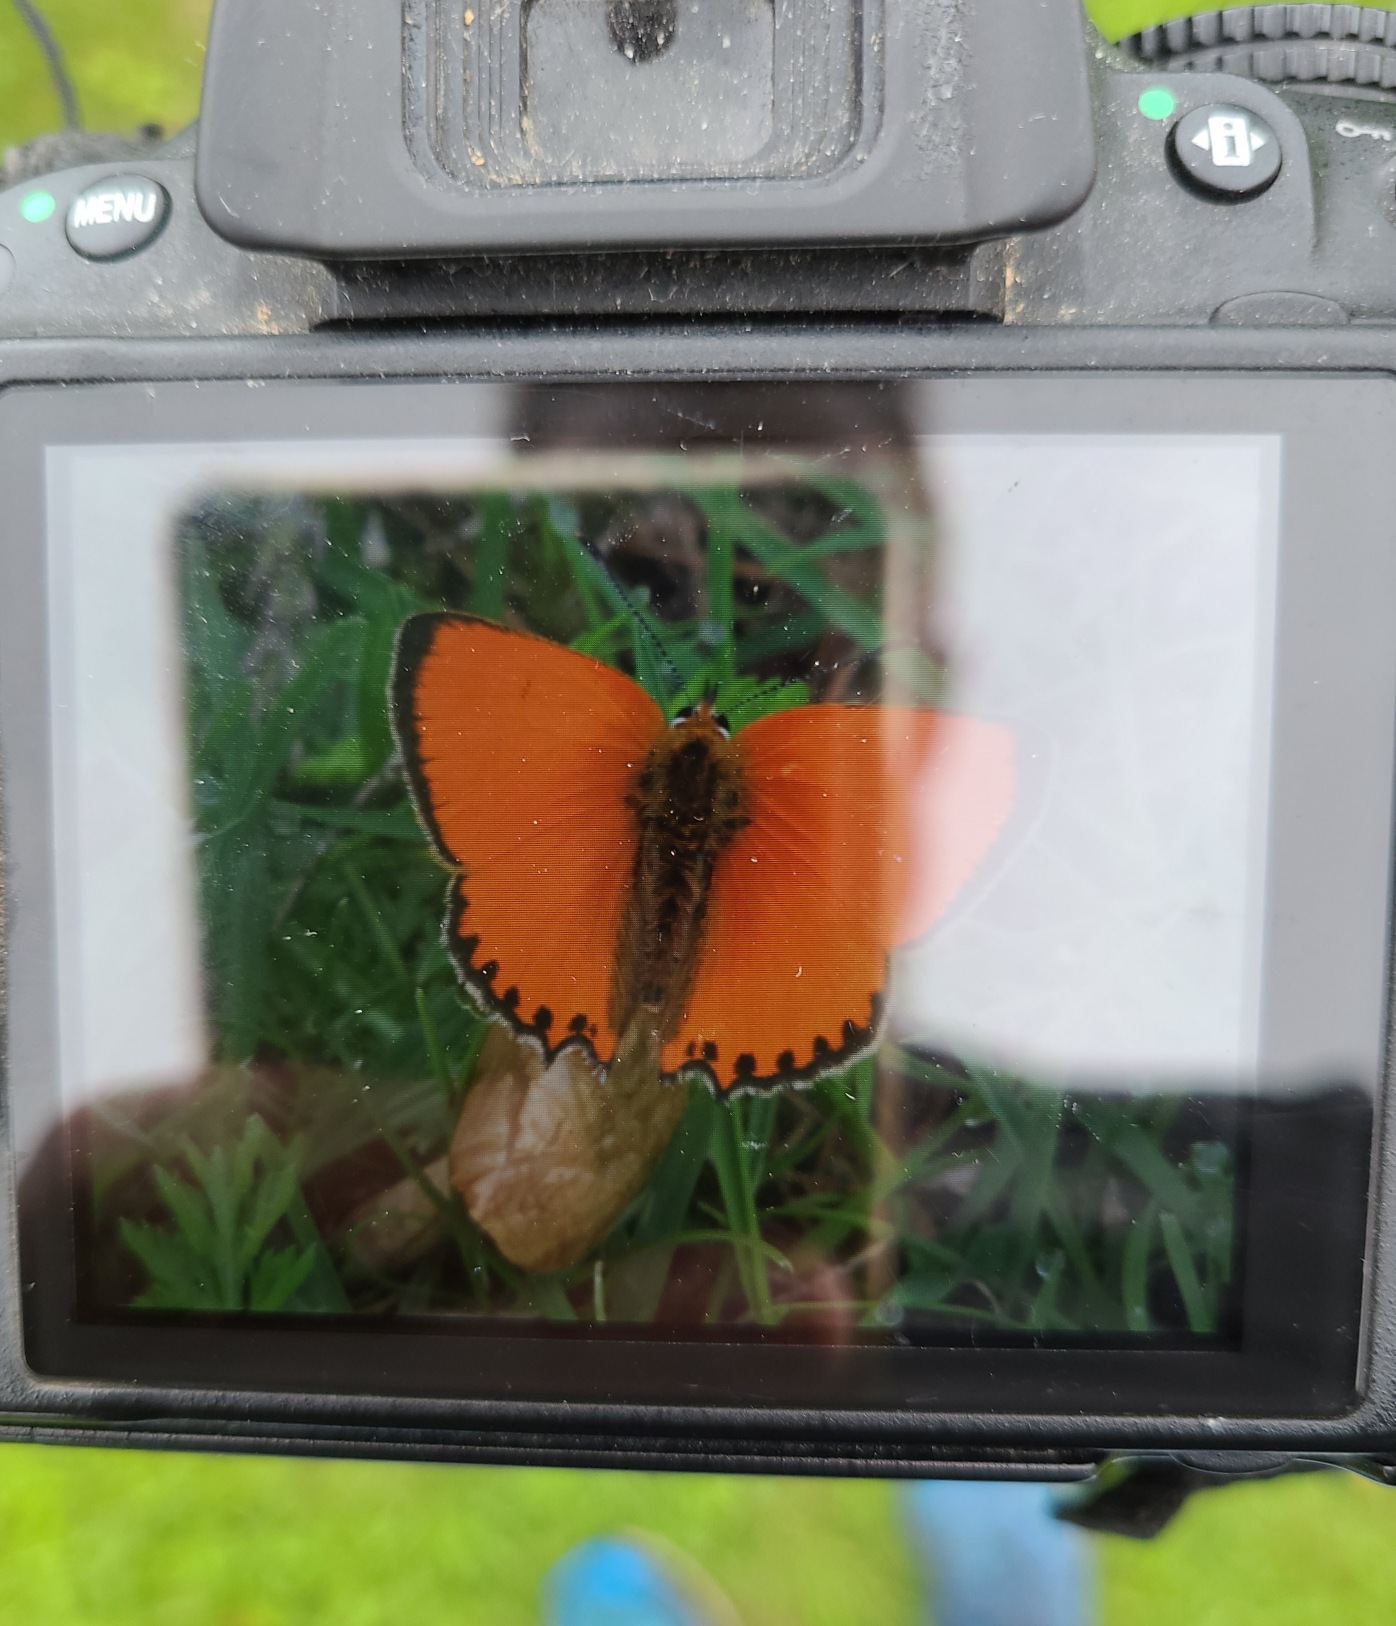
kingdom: Animalia
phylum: Arthropoda
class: Insecta
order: Lepidoptera
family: Lycaenidae
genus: Lycaena
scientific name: Lycaena virgaureae
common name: Dukatsommerfugl
